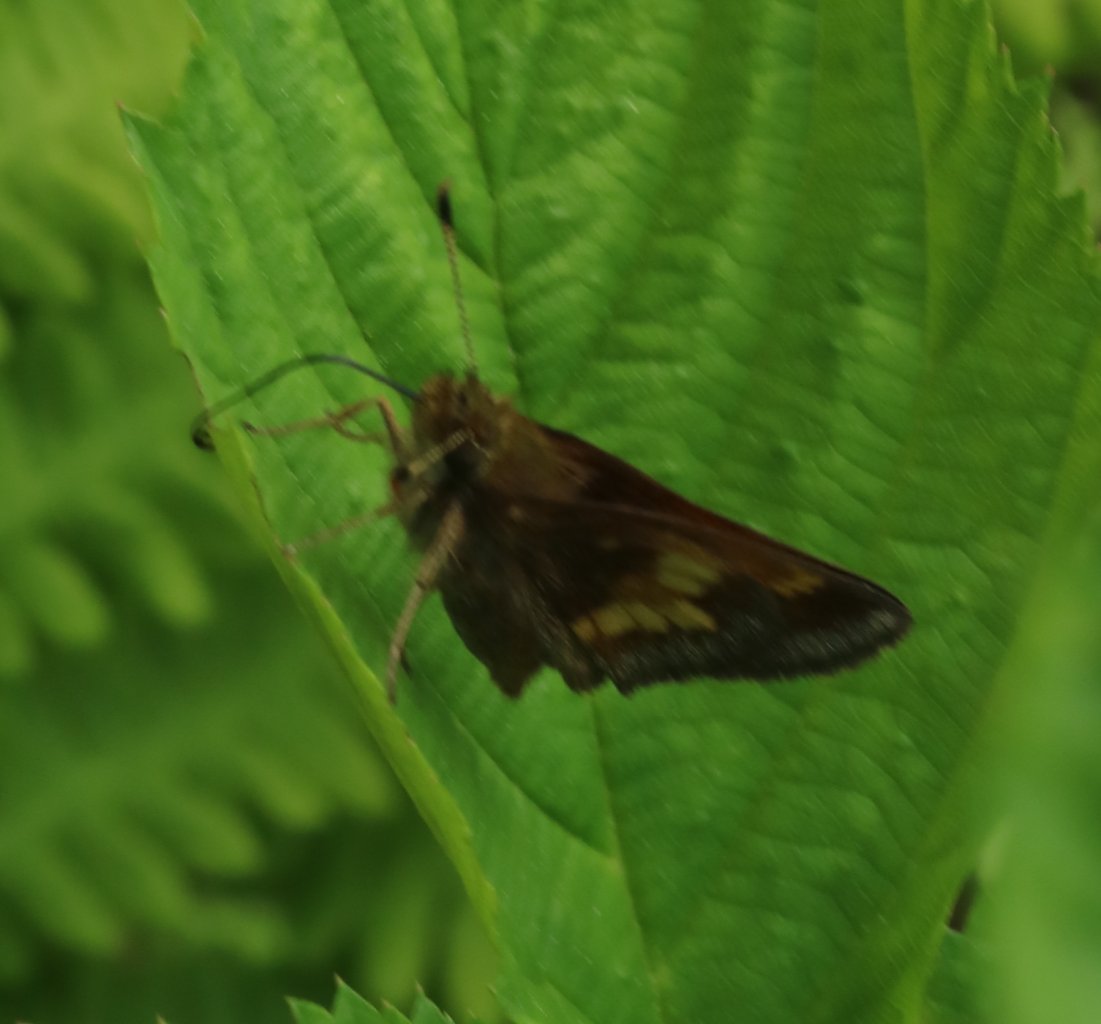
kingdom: Animalia
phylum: Arthropoda
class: Insecta
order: Lepidoptera
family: Hesperiidae
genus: Lon
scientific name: Lon hobomok
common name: Hobomok Skipper
